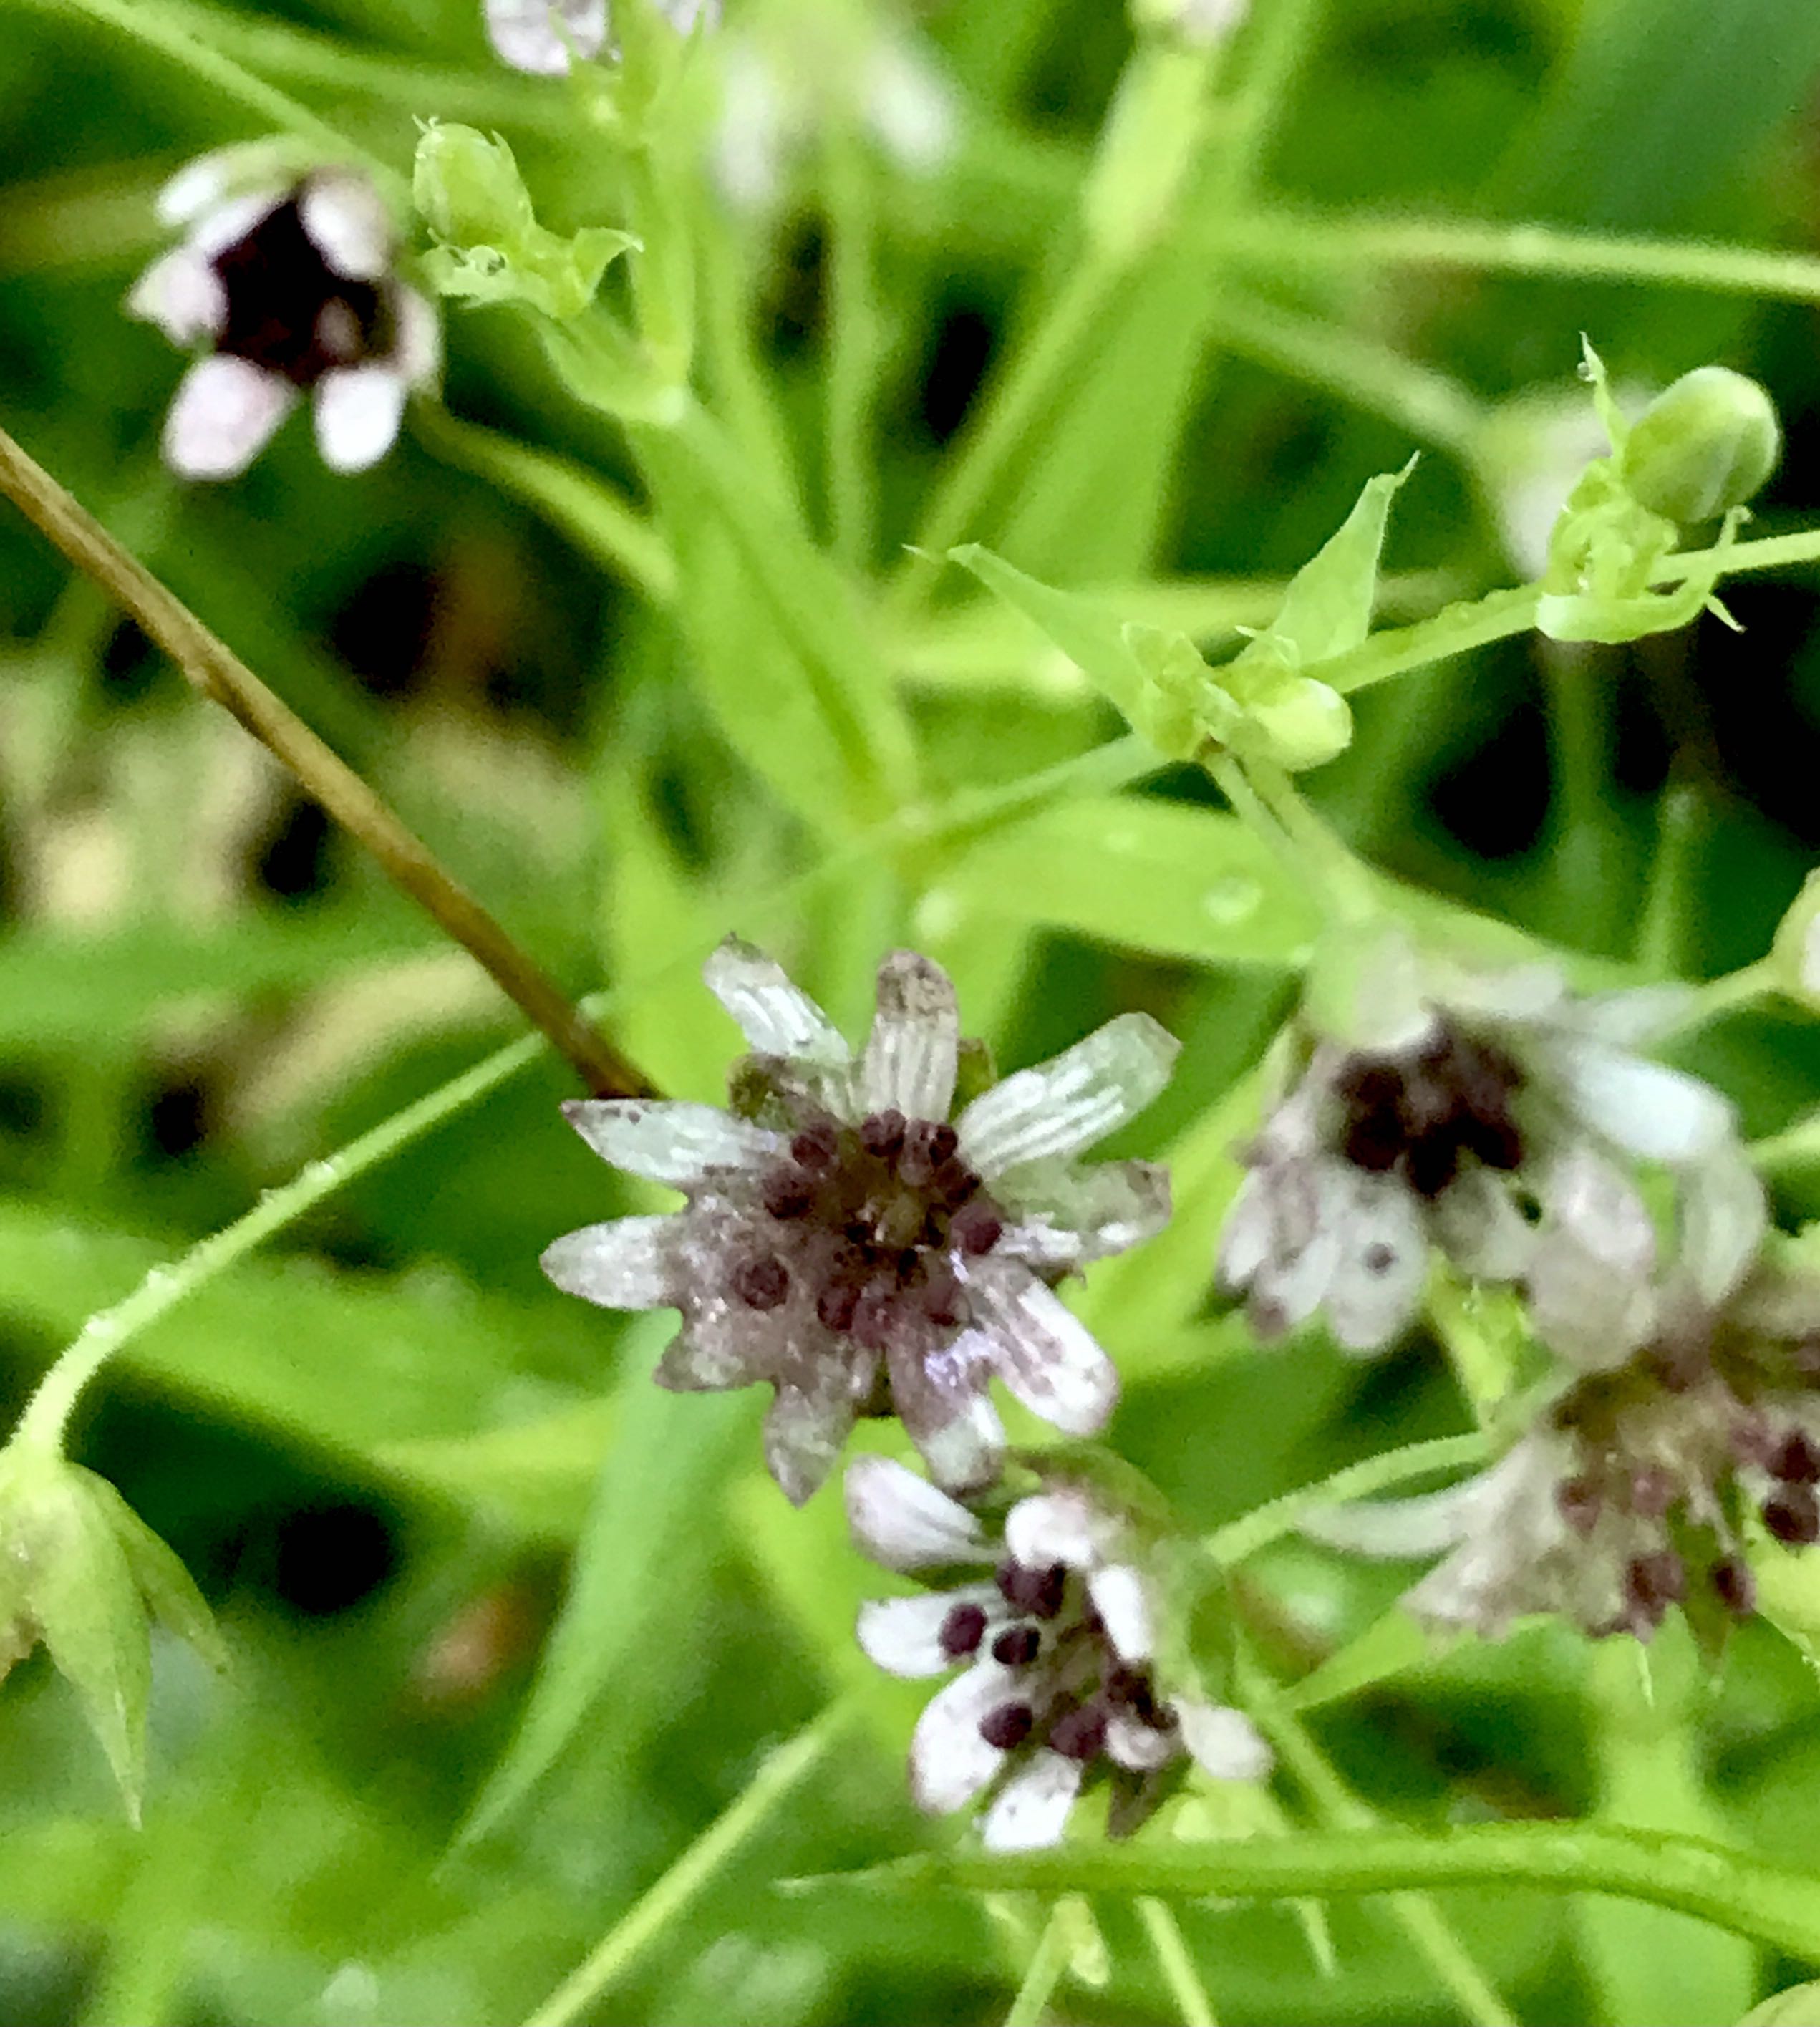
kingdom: Fungi
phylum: Basidiomycota
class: Microbotryomycetes
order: Microbotryales
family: Microbotryaceae
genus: Microbotryum
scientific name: Microbotryum stellariae
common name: fladstjerne-støvbladrust
